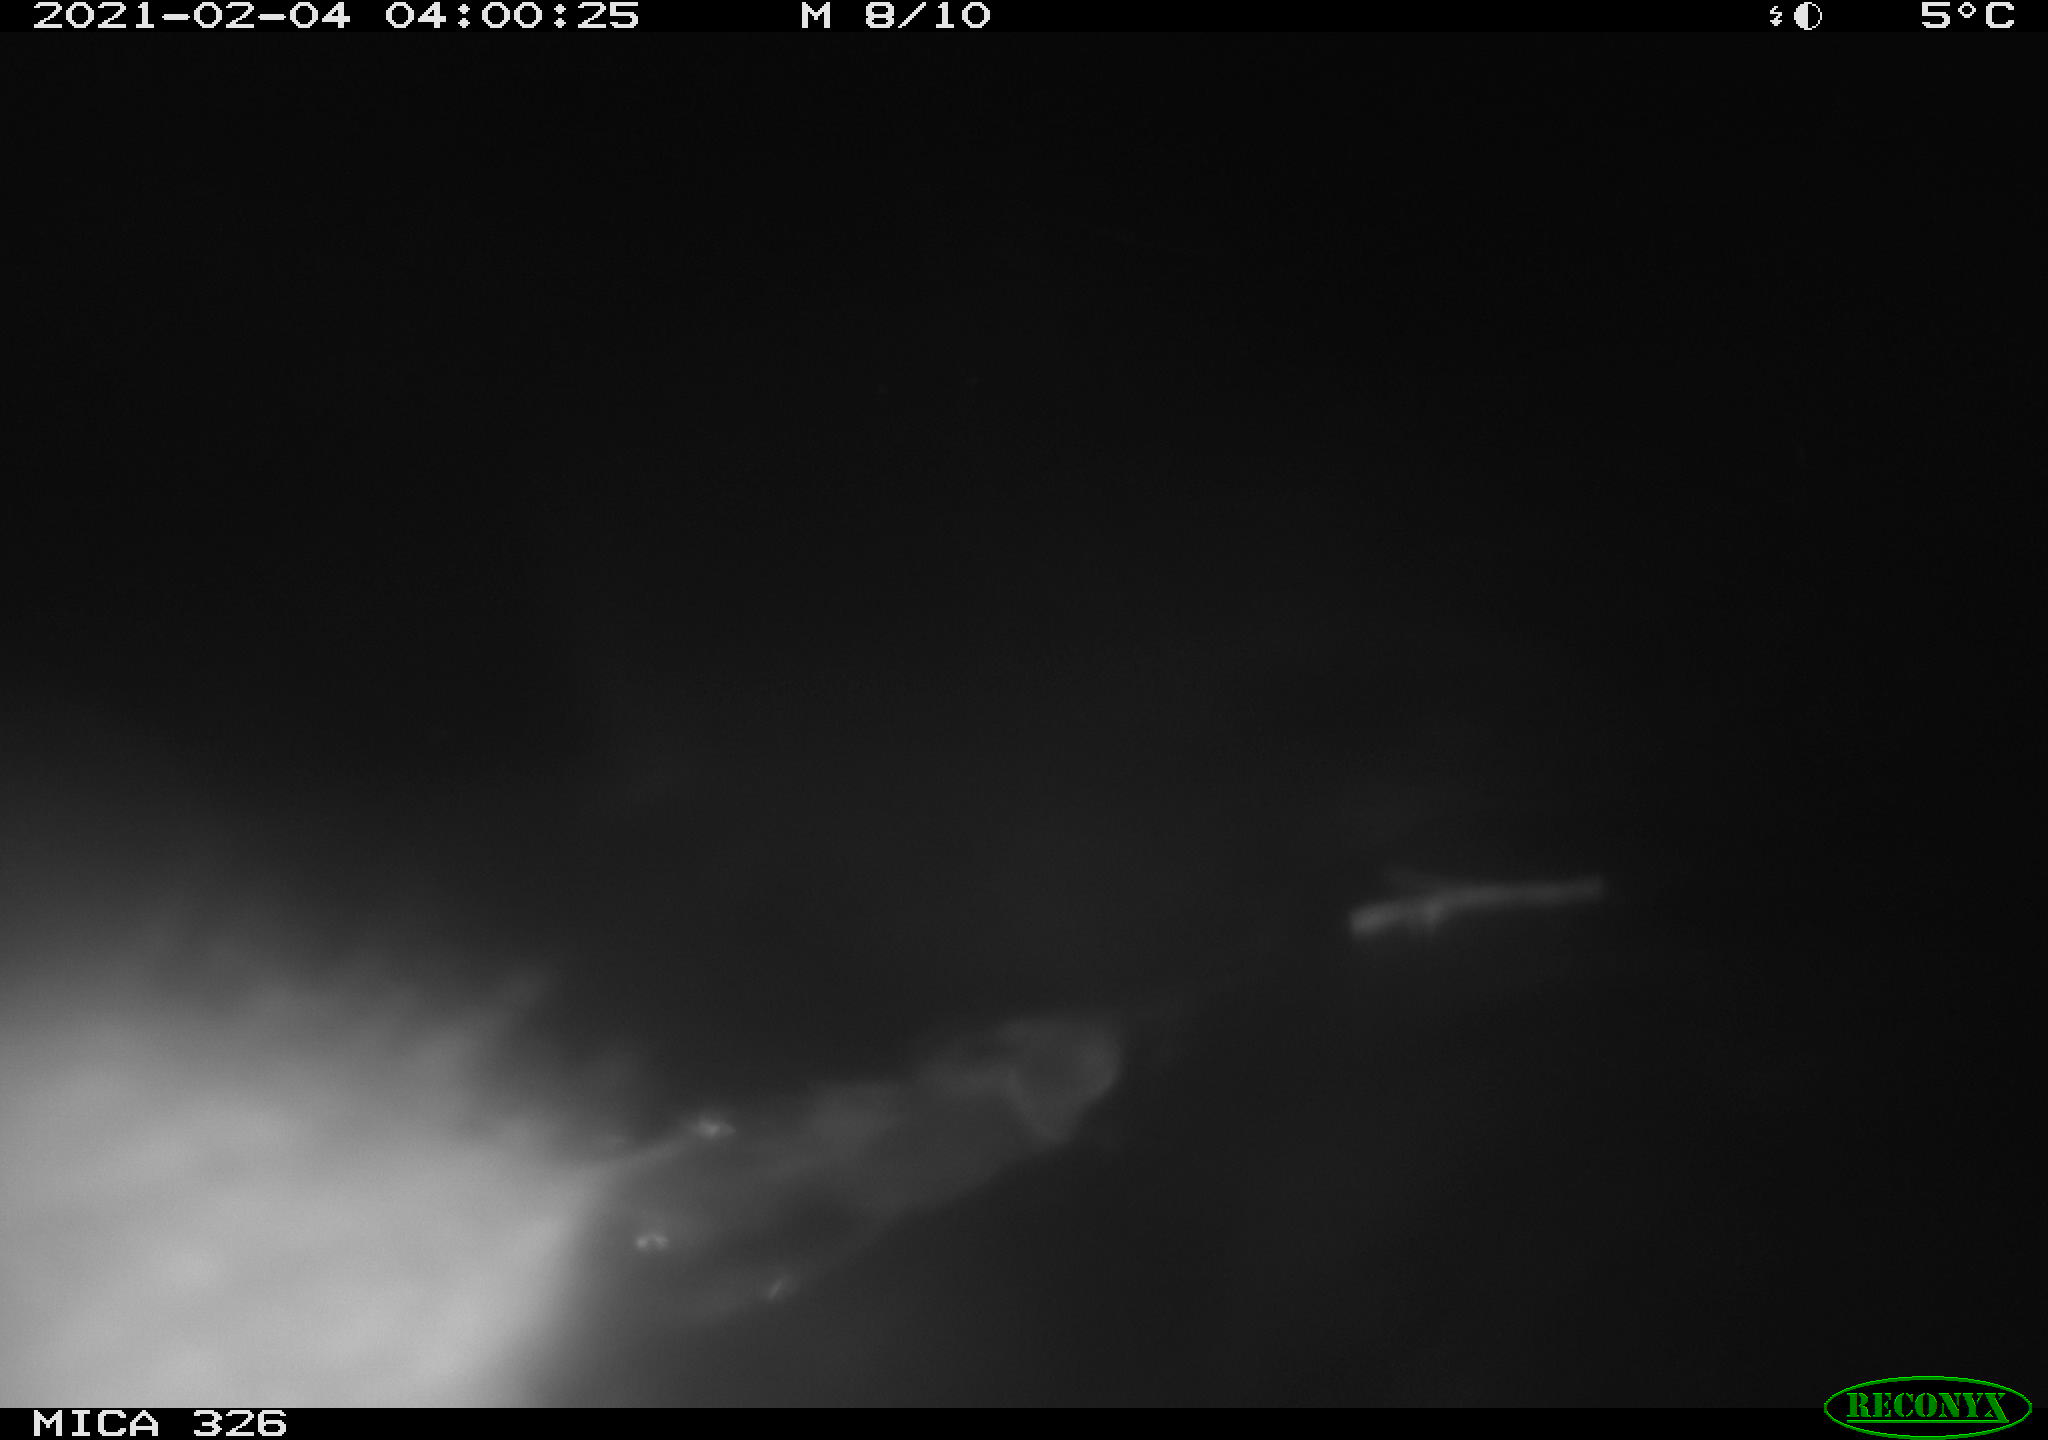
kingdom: Animalia
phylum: Chordata
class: Mammalia
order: Rodentia
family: Myocastoridae
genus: Myocastor
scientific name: Myocastor coypus
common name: Coypu
